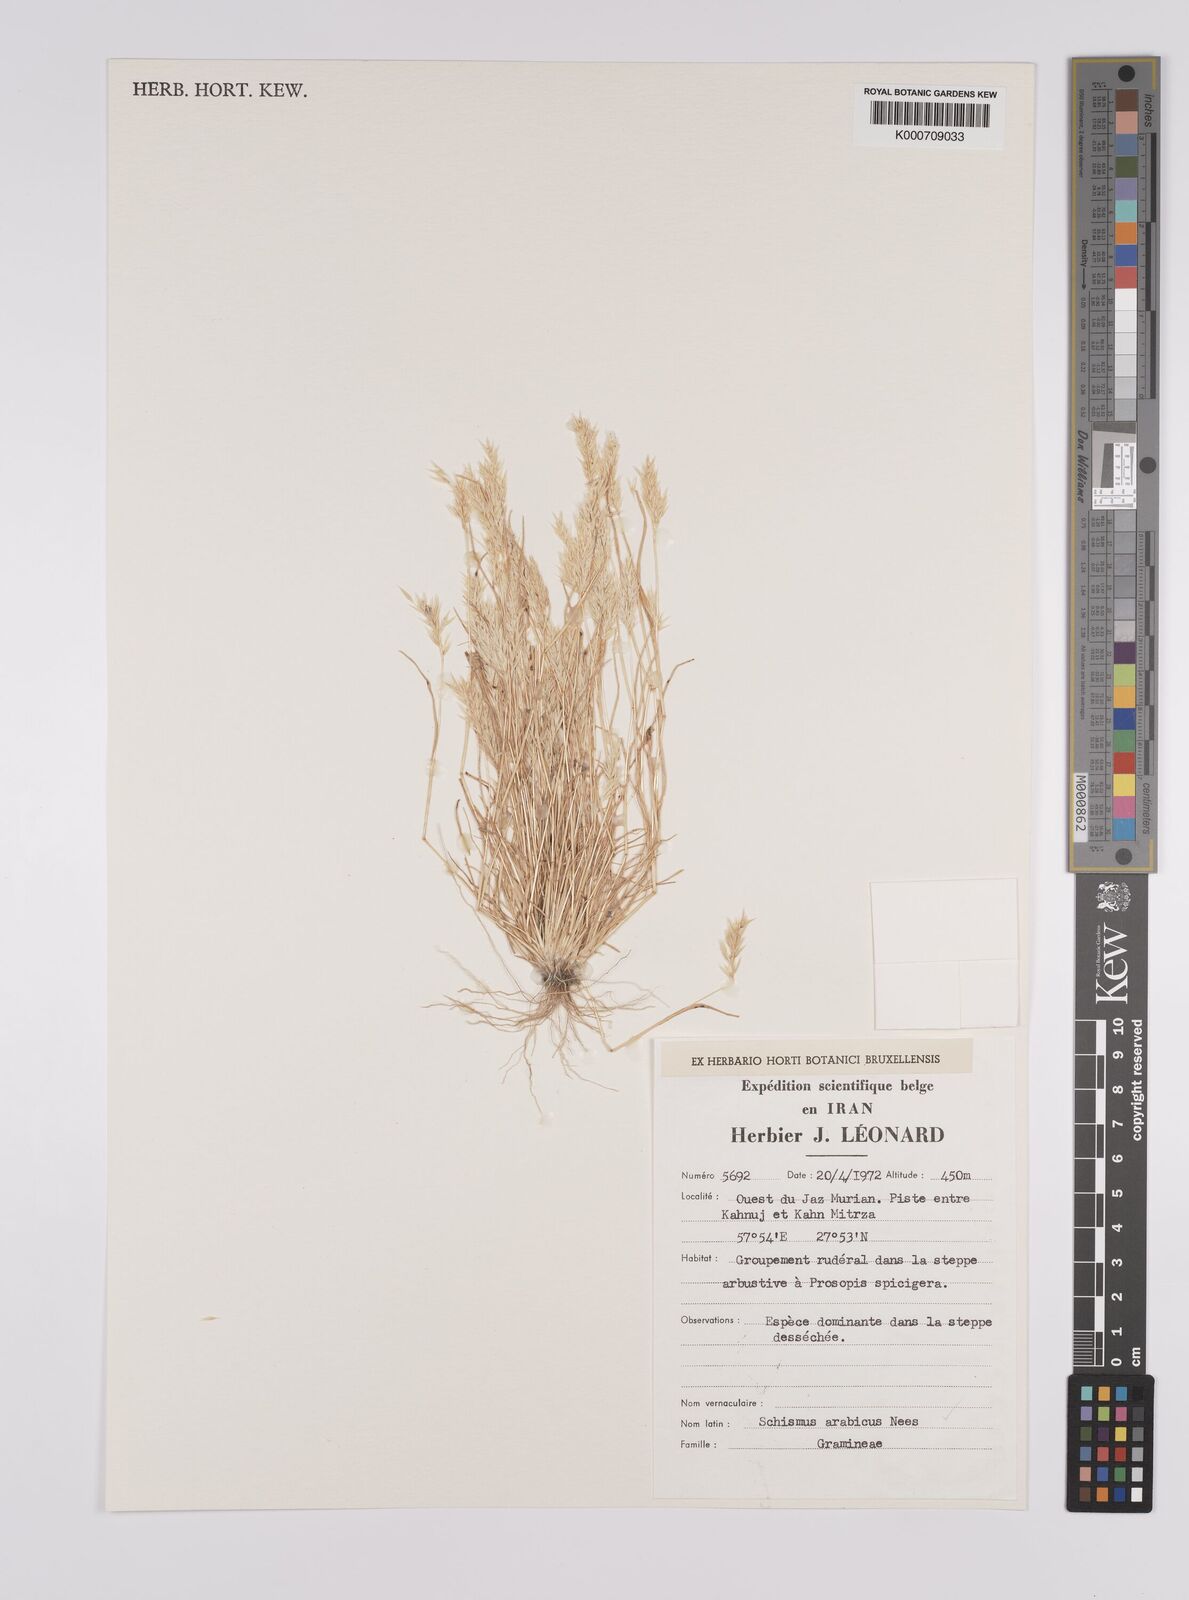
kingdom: Plantae
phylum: Tracheophyta
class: Liliopsida
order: Poales
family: Poaceae
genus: Schismus
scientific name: Schismus arabicus
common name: Arabian schismus
